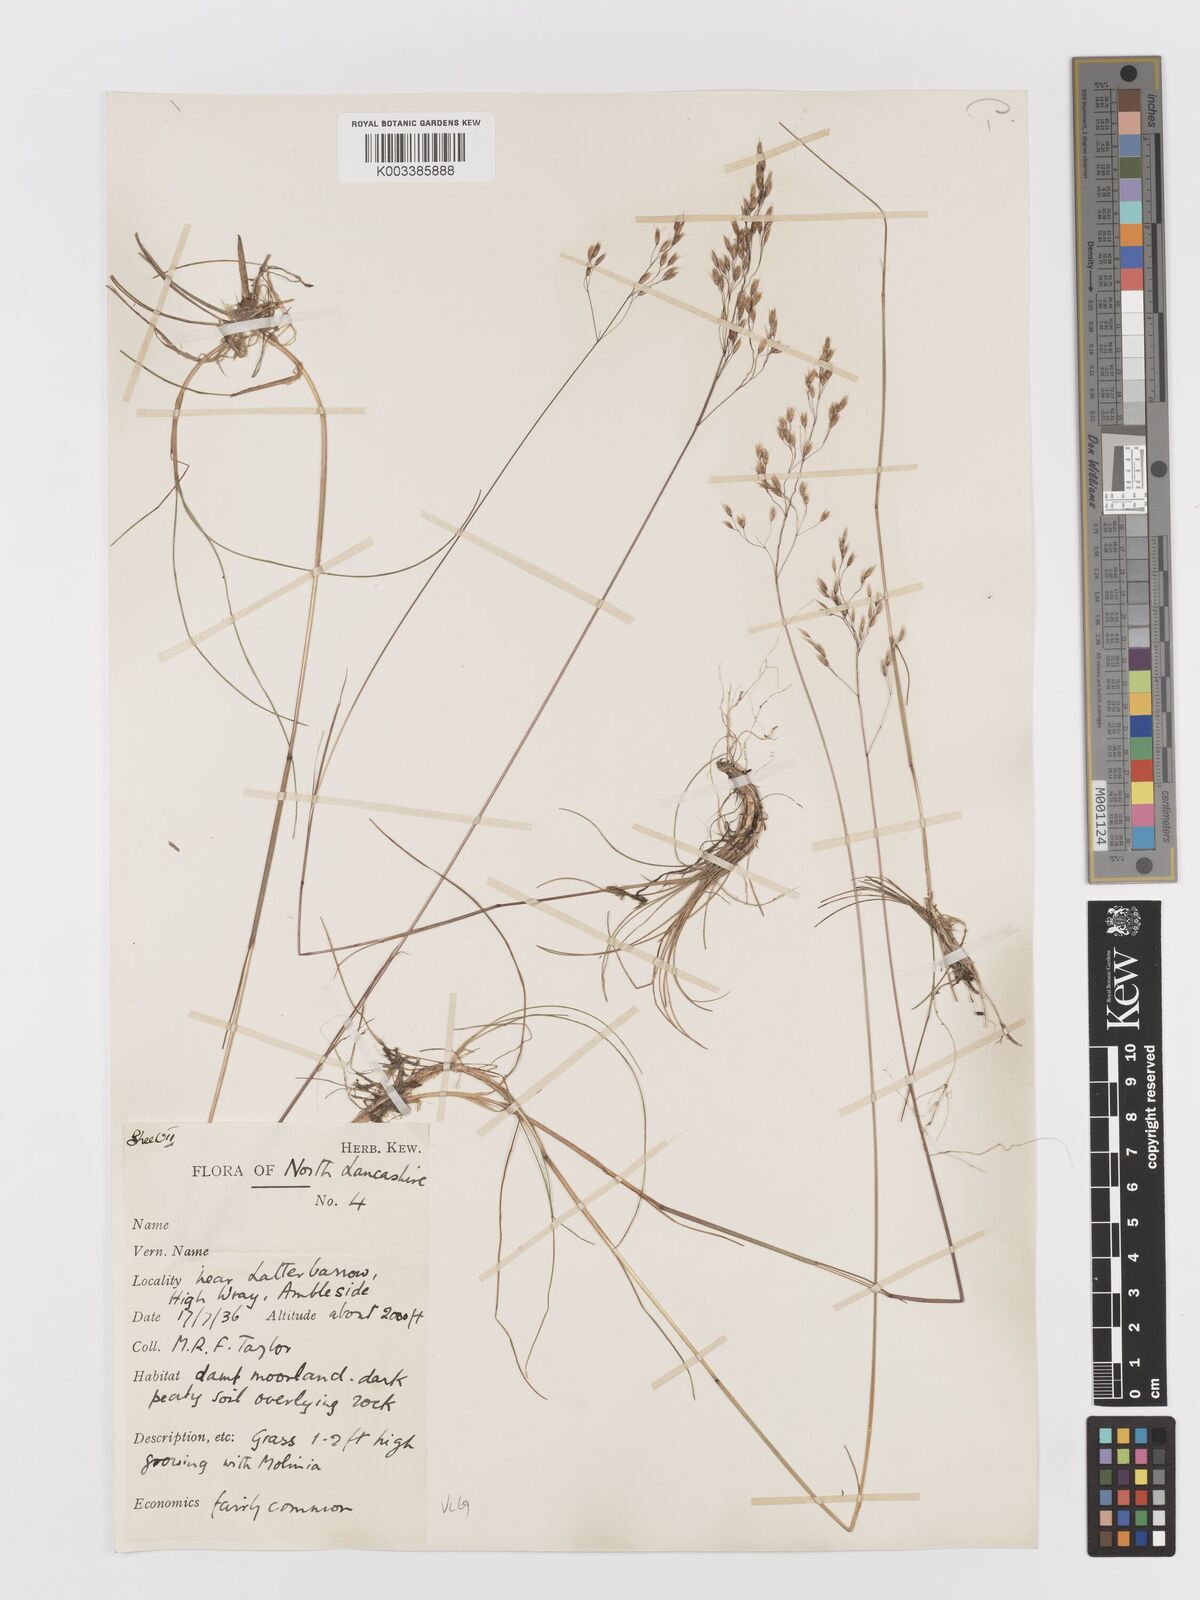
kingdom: Plantae
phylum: Tracheophyta
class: Liliopsida
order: Poales
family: Poaceae
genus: Avenella
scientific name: Avenella flexuosa
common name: Wavy hairgrass
